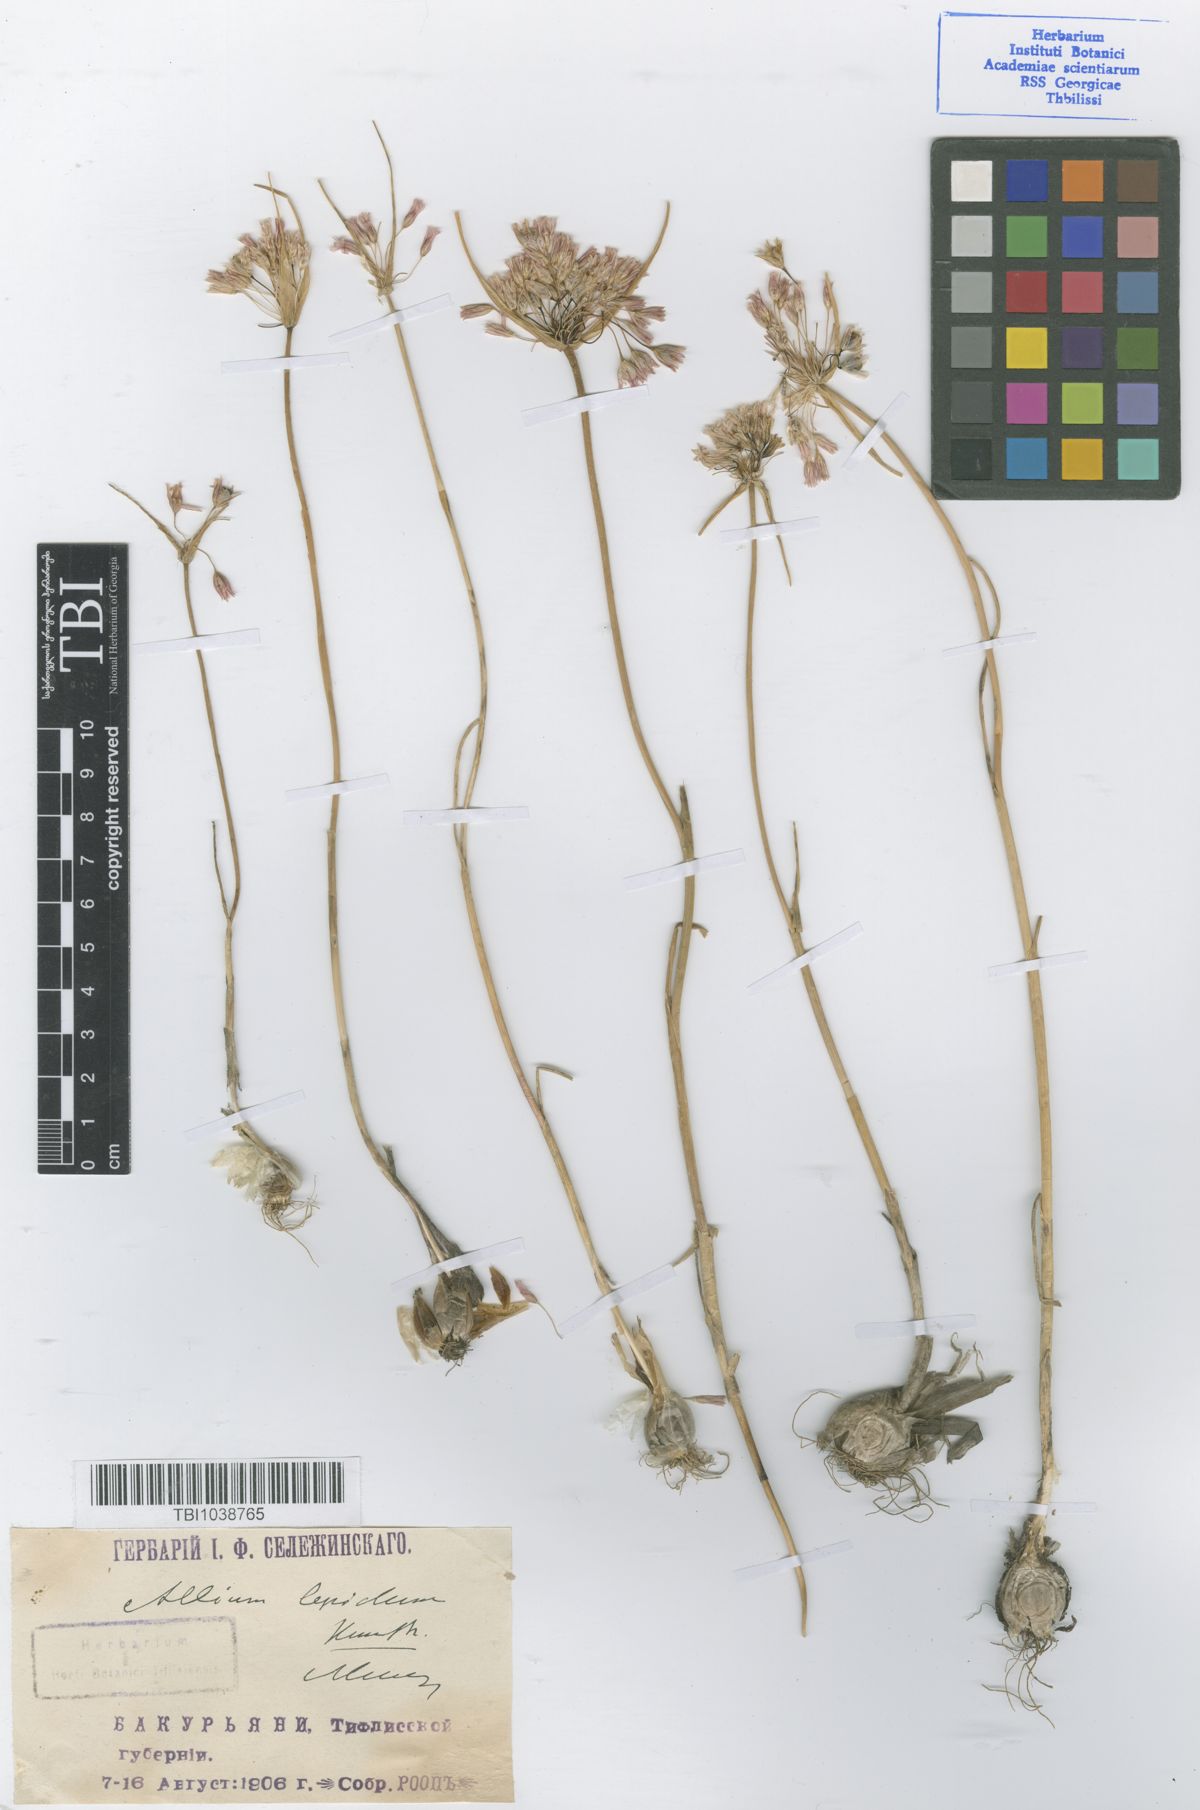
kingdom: Plantae
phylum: Tracheophyta
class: Liliopsida
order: Asparagales
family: Amaryllidaceae
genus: Allium
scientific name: Allium kunthianum
